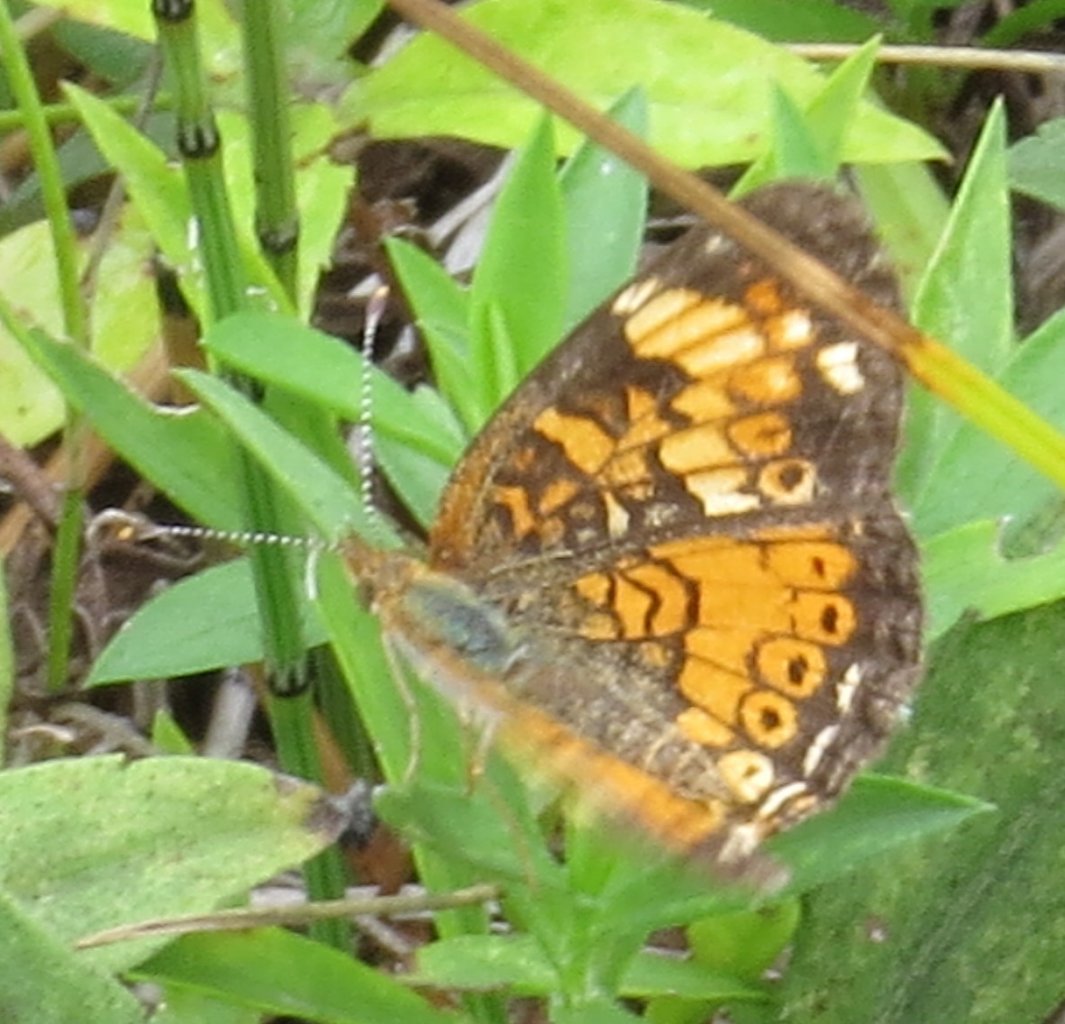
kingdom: Animalia
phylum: Arthropoda
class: Insecta
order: Lepidoptera
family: Nymphalidae
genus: Phyciodes
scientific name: Phyciodes tharos
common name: Pearl Crescent
